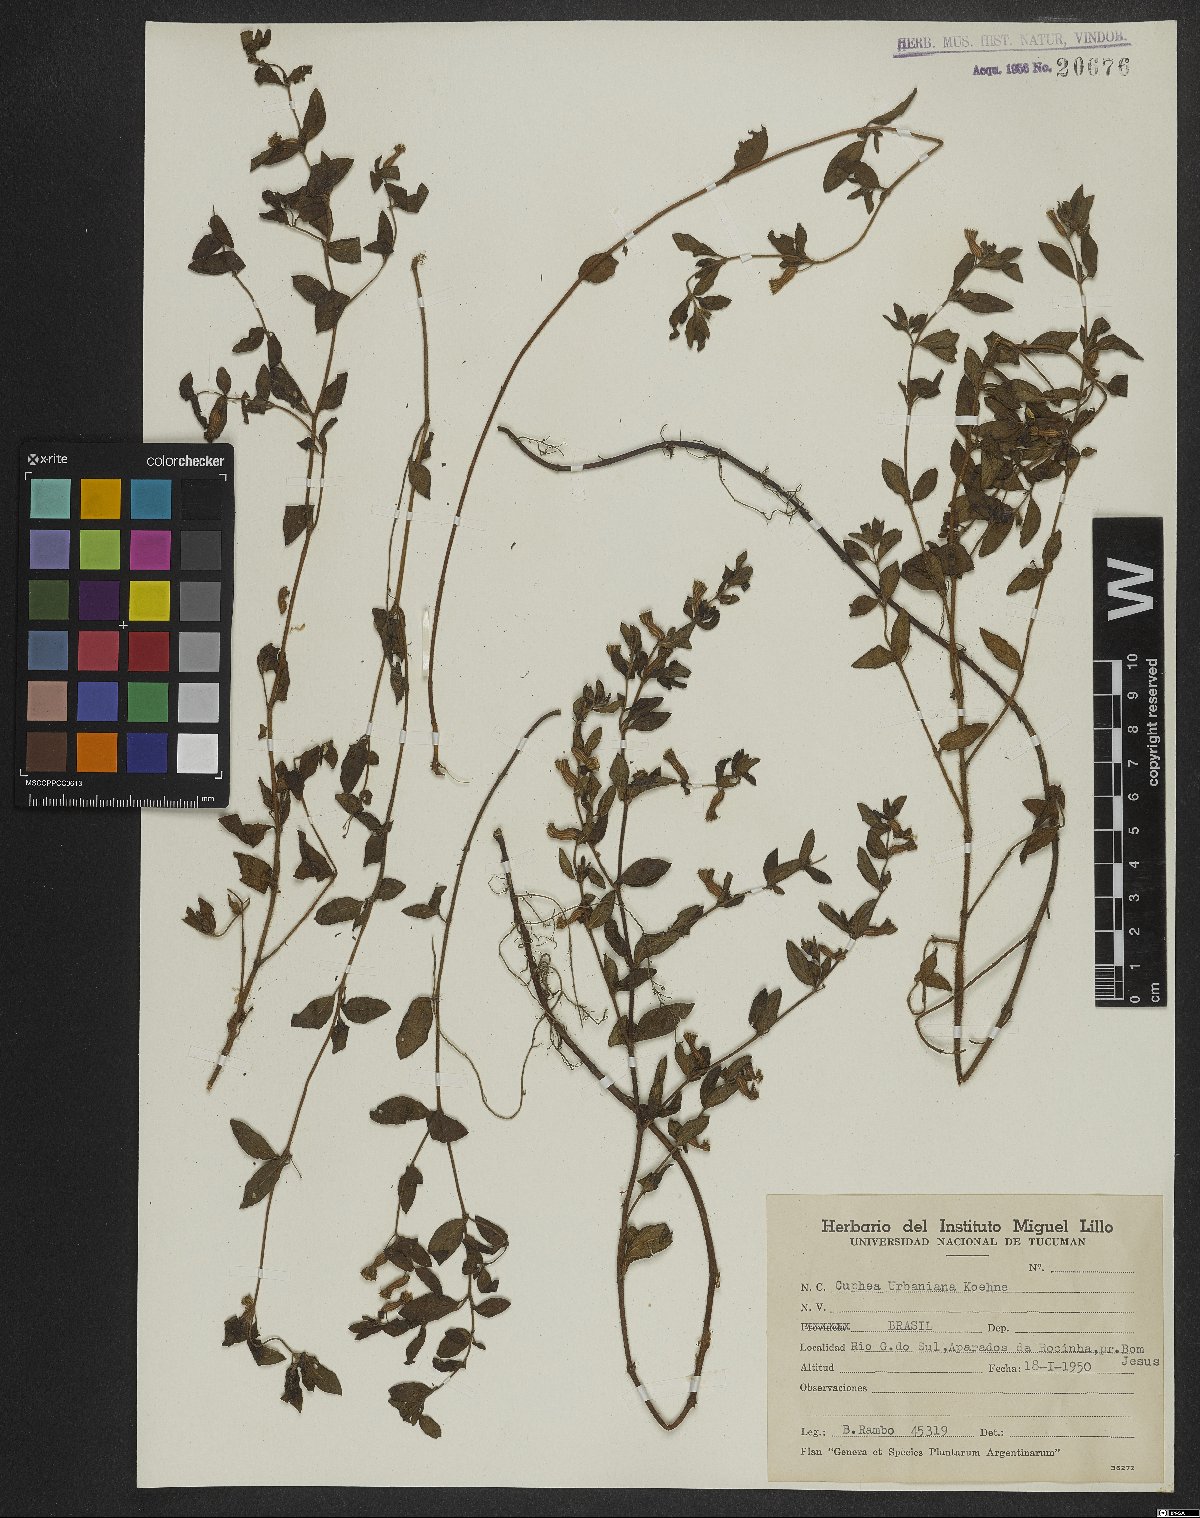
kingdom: Plantae
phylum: Tracheophyta
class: Magnoliopsida
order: Myrtales
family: Lythraceae
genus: Cuphea
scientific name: Cuphea urbaniana
